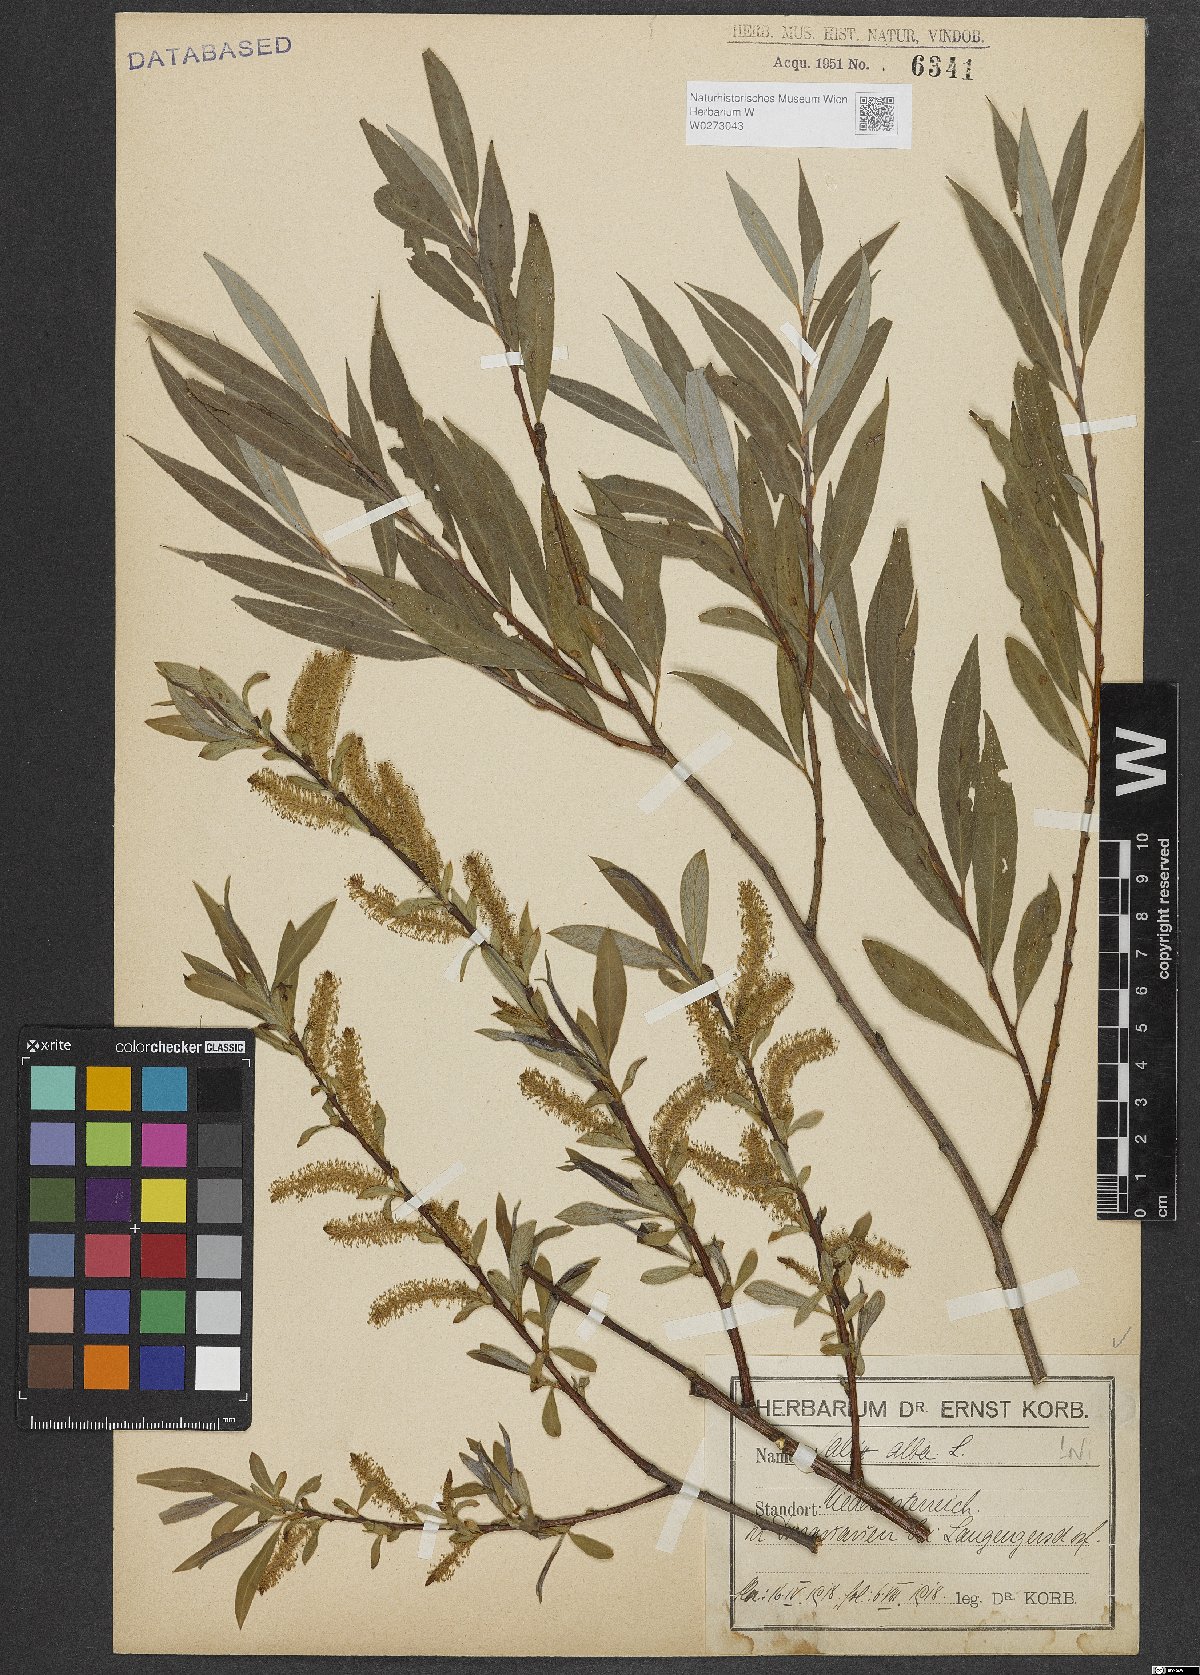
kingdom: Plantae
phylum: Tracheophyta
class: Magnoliopsida
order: Malpighiales
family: Salicaceae
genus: Salix
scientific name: Salix alba
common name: White willow
